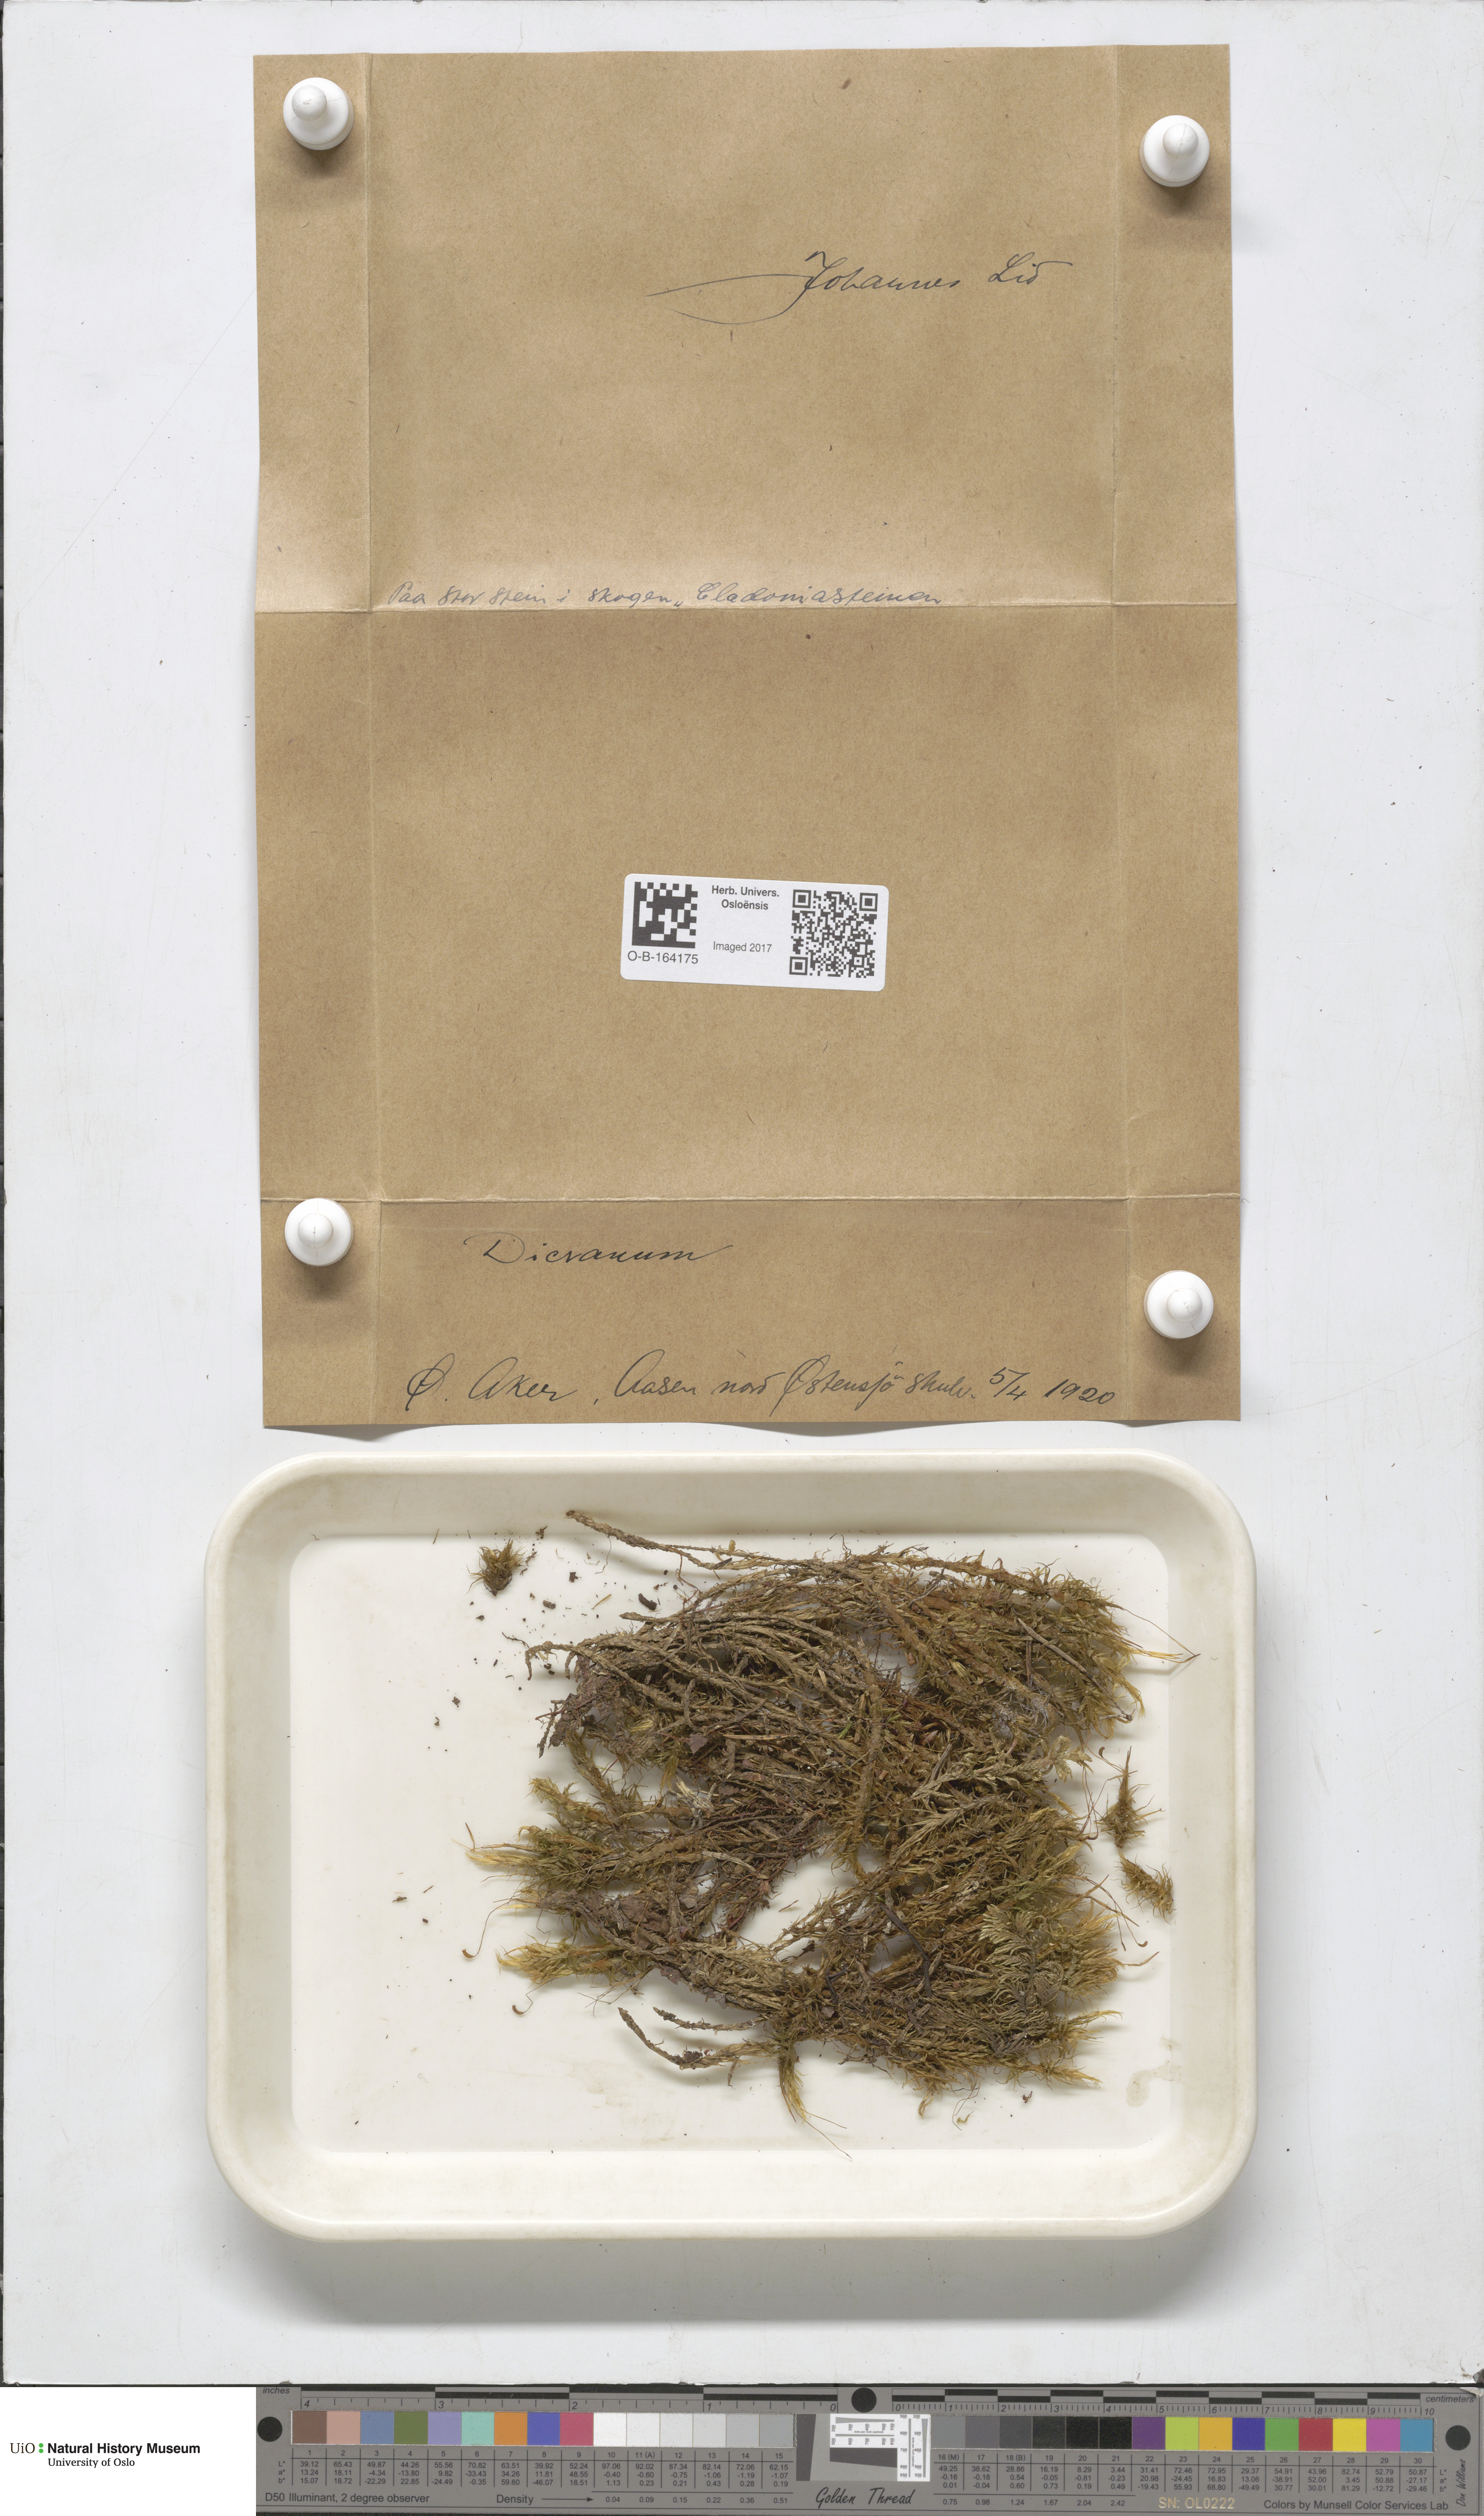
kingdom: Plantae
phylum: Bryophyta
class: Bryopsida
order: Dicranales
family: Dicranaceae
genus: Dicranum
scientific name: Dicranum
